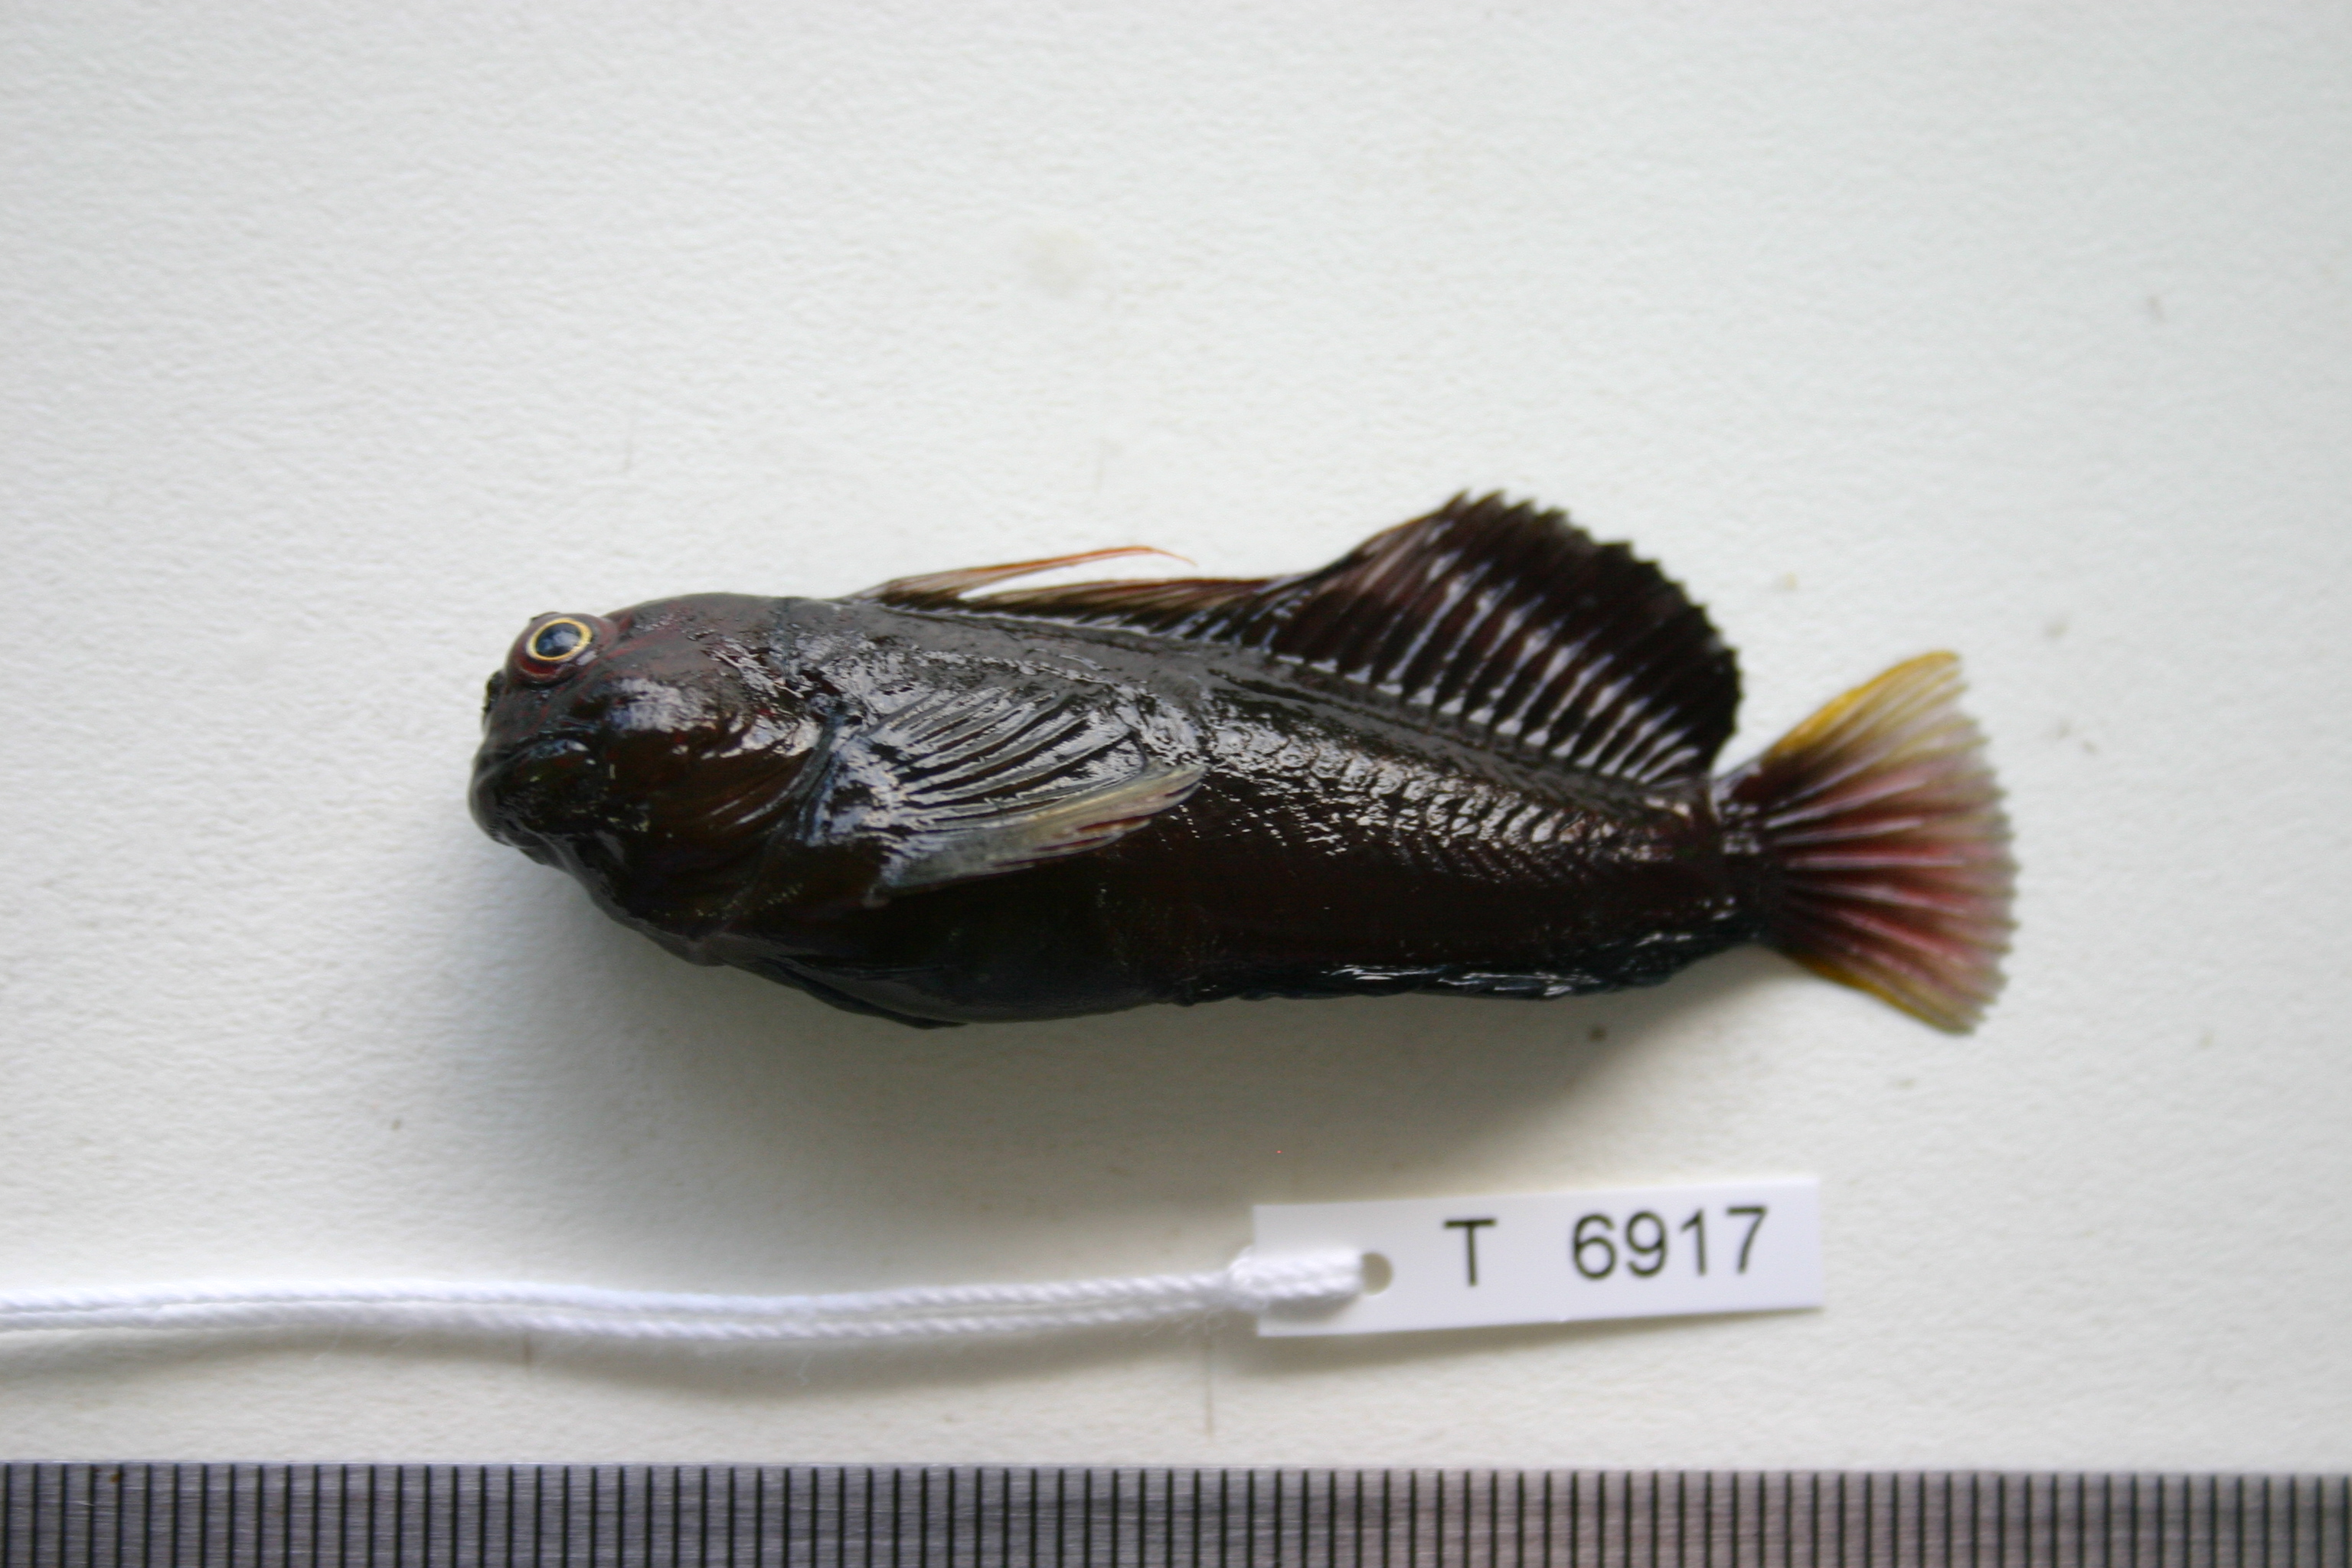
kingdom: Animalia
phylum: Chordata
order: Perciformes
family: Blenniidae
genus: Cirripectes
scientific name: Cirripectes filamentosus
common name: Filamentous blenny
